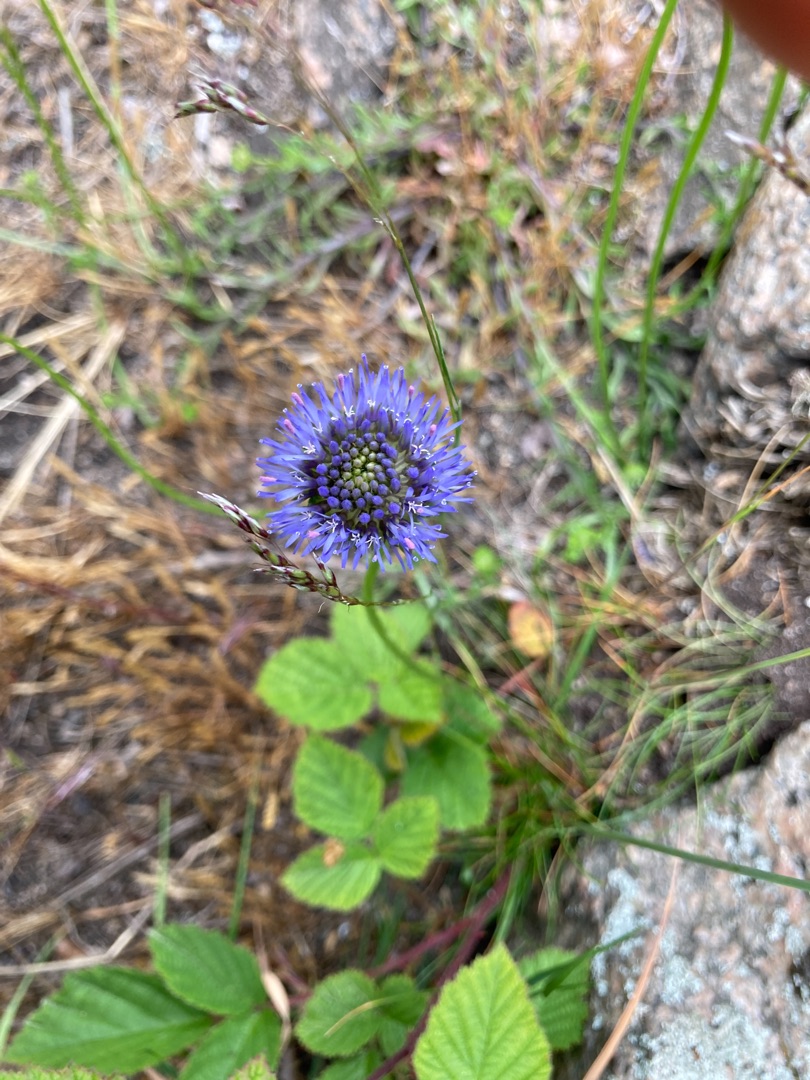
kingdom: Plantae
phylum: Tracheophyta
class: Magnoliopsida
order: Asterales
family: Campanulaceae
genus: Jasione
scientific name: Jasione montana
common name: Blåmunke
